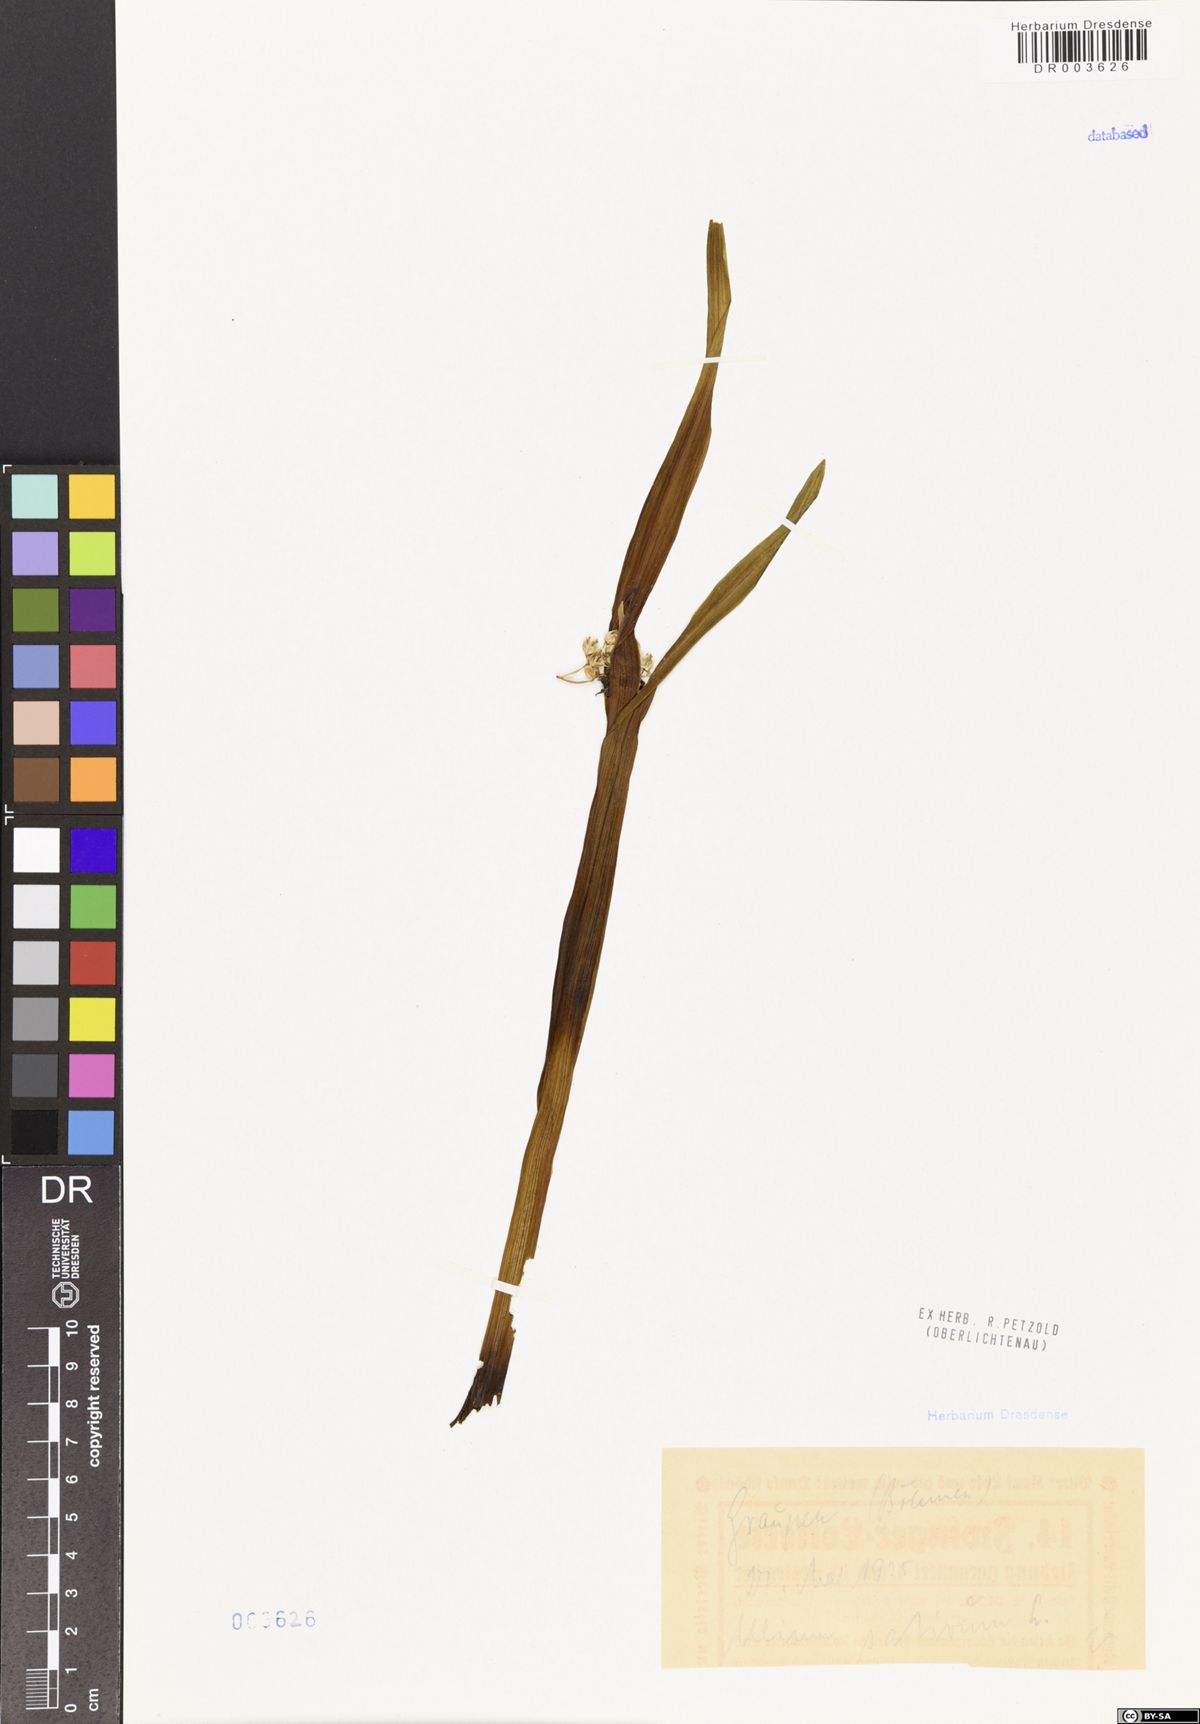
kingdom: Plantae
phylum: Tracheophyta
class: Liliopsida
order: Asparagales
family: Amaryllidaceae
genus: Allium
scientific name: Allium sativum
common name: Garlic
